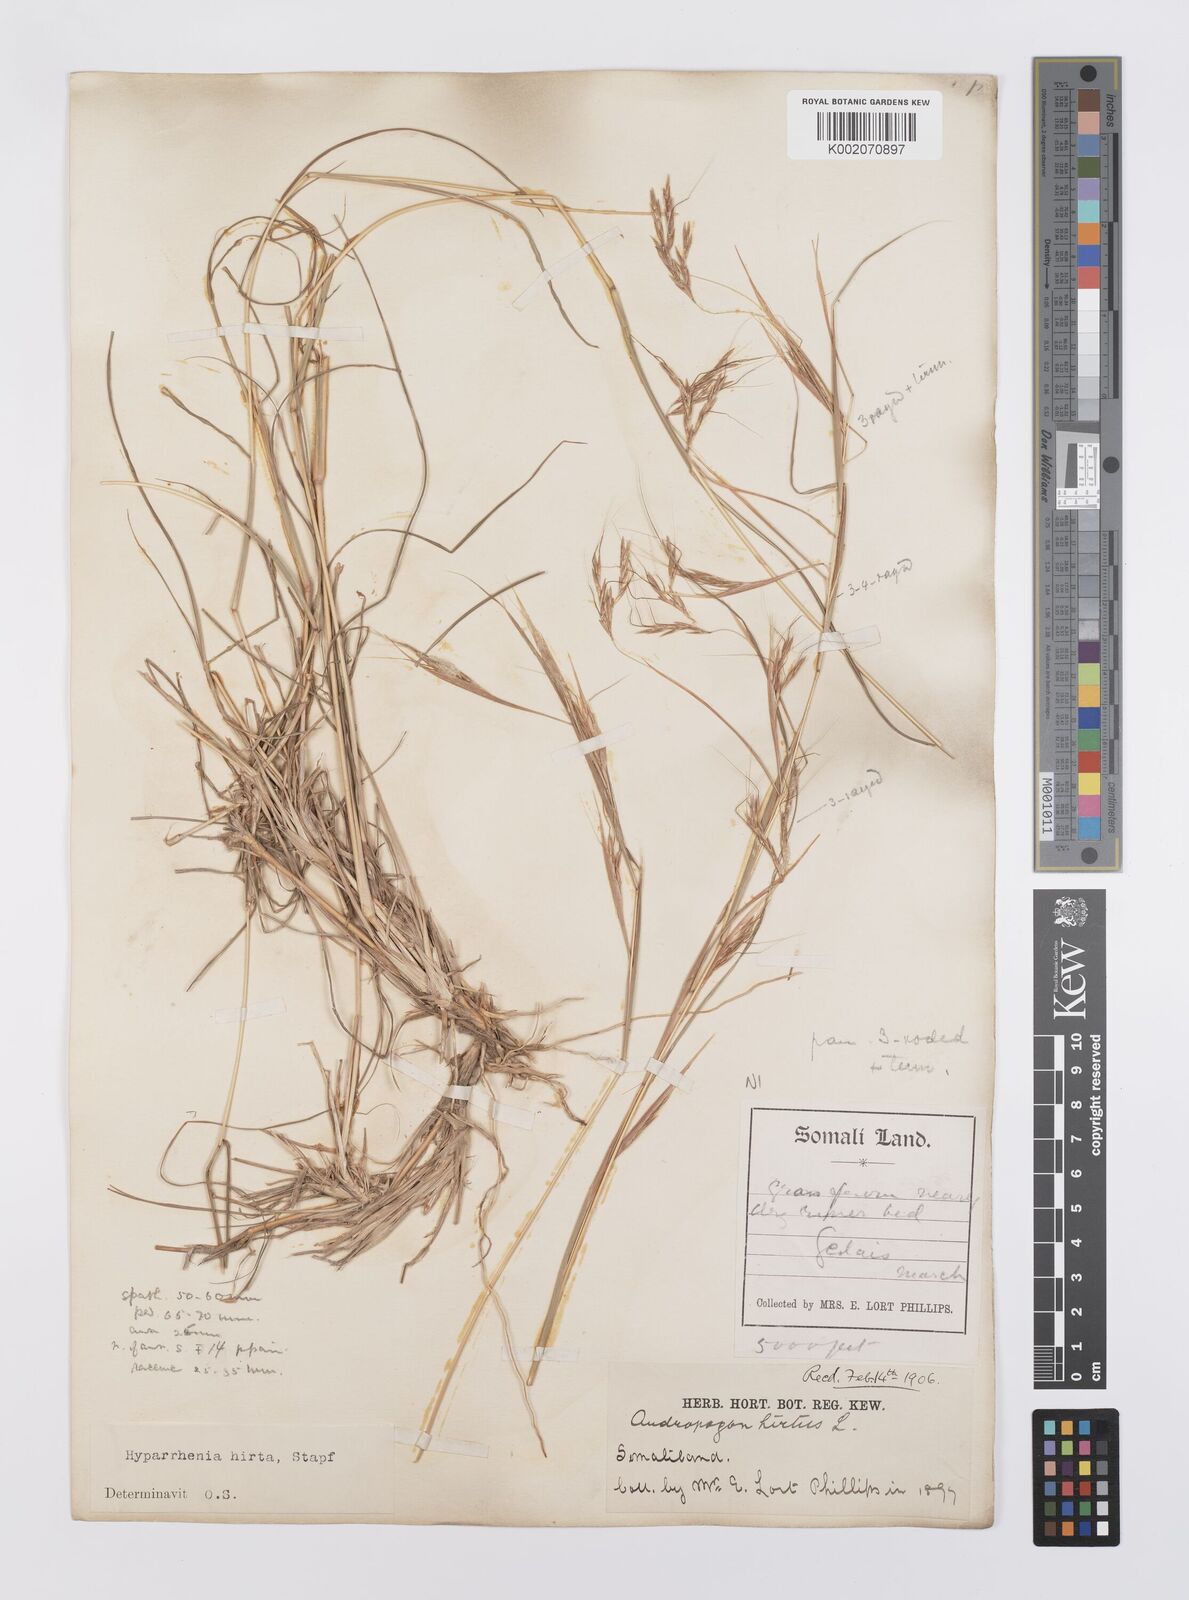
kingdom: Plantae
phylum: Tracheophyta
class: Liliopsida
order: Poales
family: Poaceae
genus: Hyparrhenia
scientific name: Hyparrhenia hirta
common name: Thatching grass
